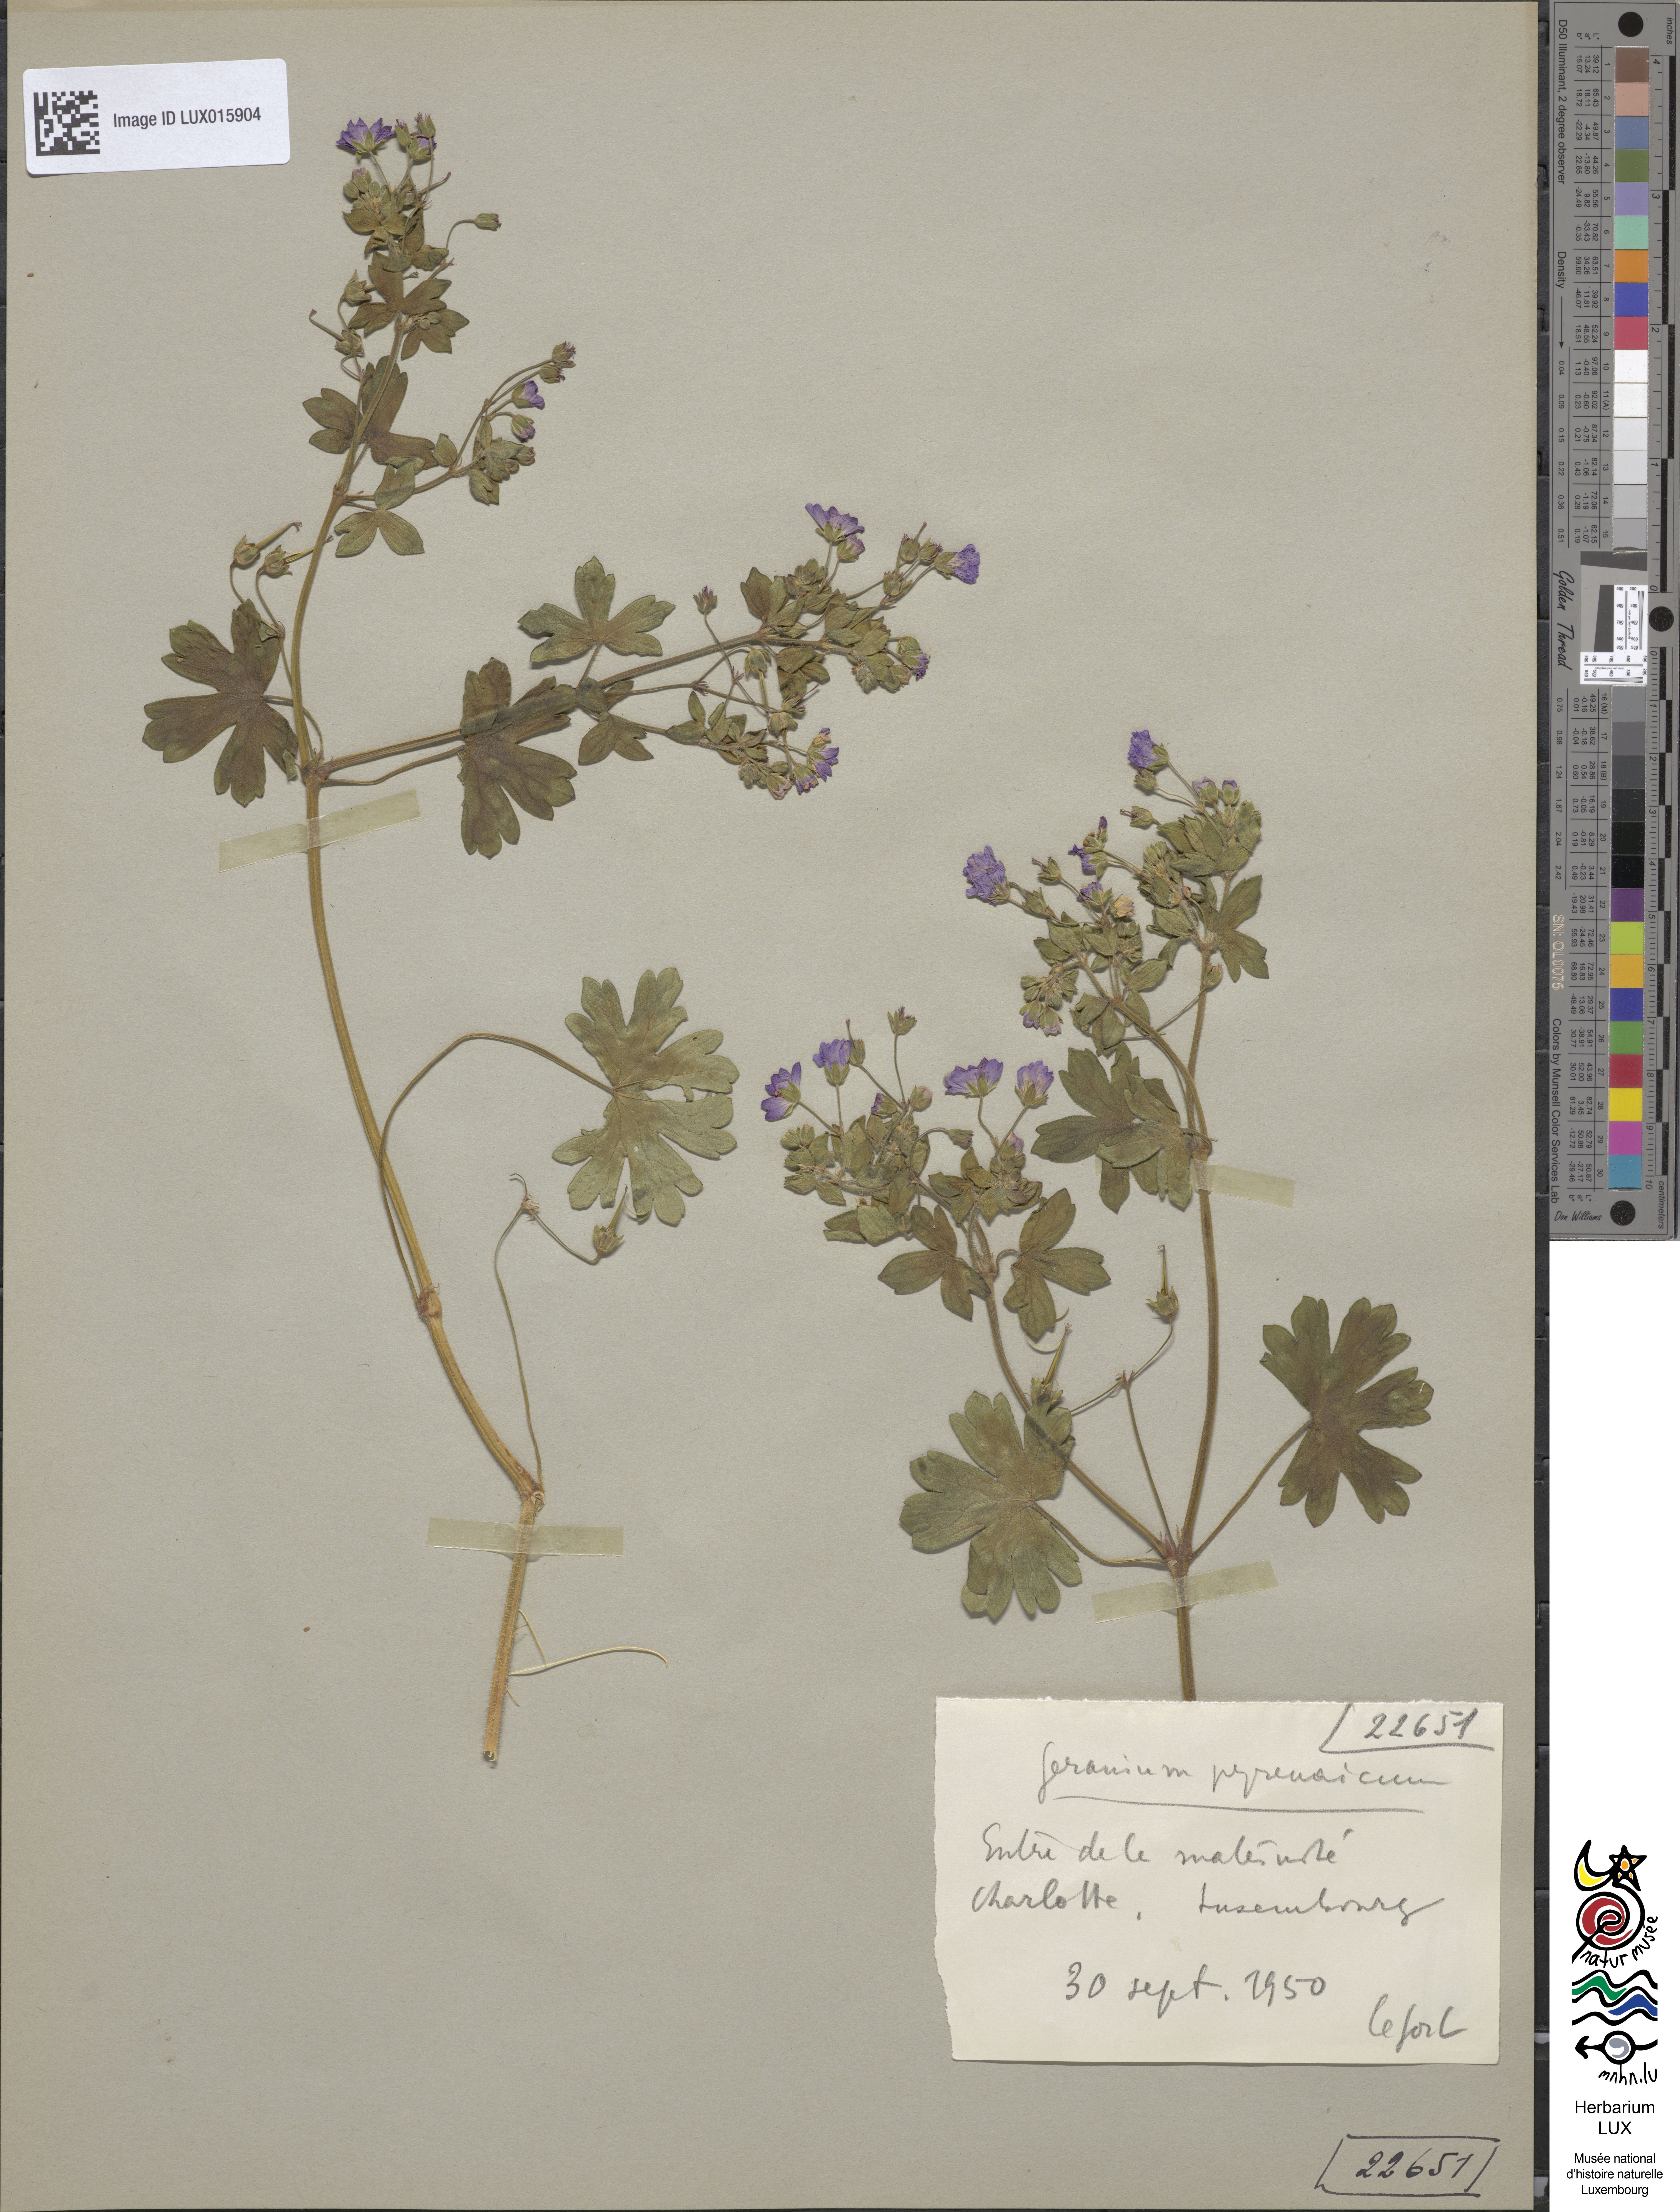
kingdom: Plantae
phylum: Tracheophyta
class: Magnoliopsida
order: Geraniales
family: Geraniaceae
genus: Geranium
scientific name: Geranium pyrenaicum
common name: Hedgerow crane's-bill
